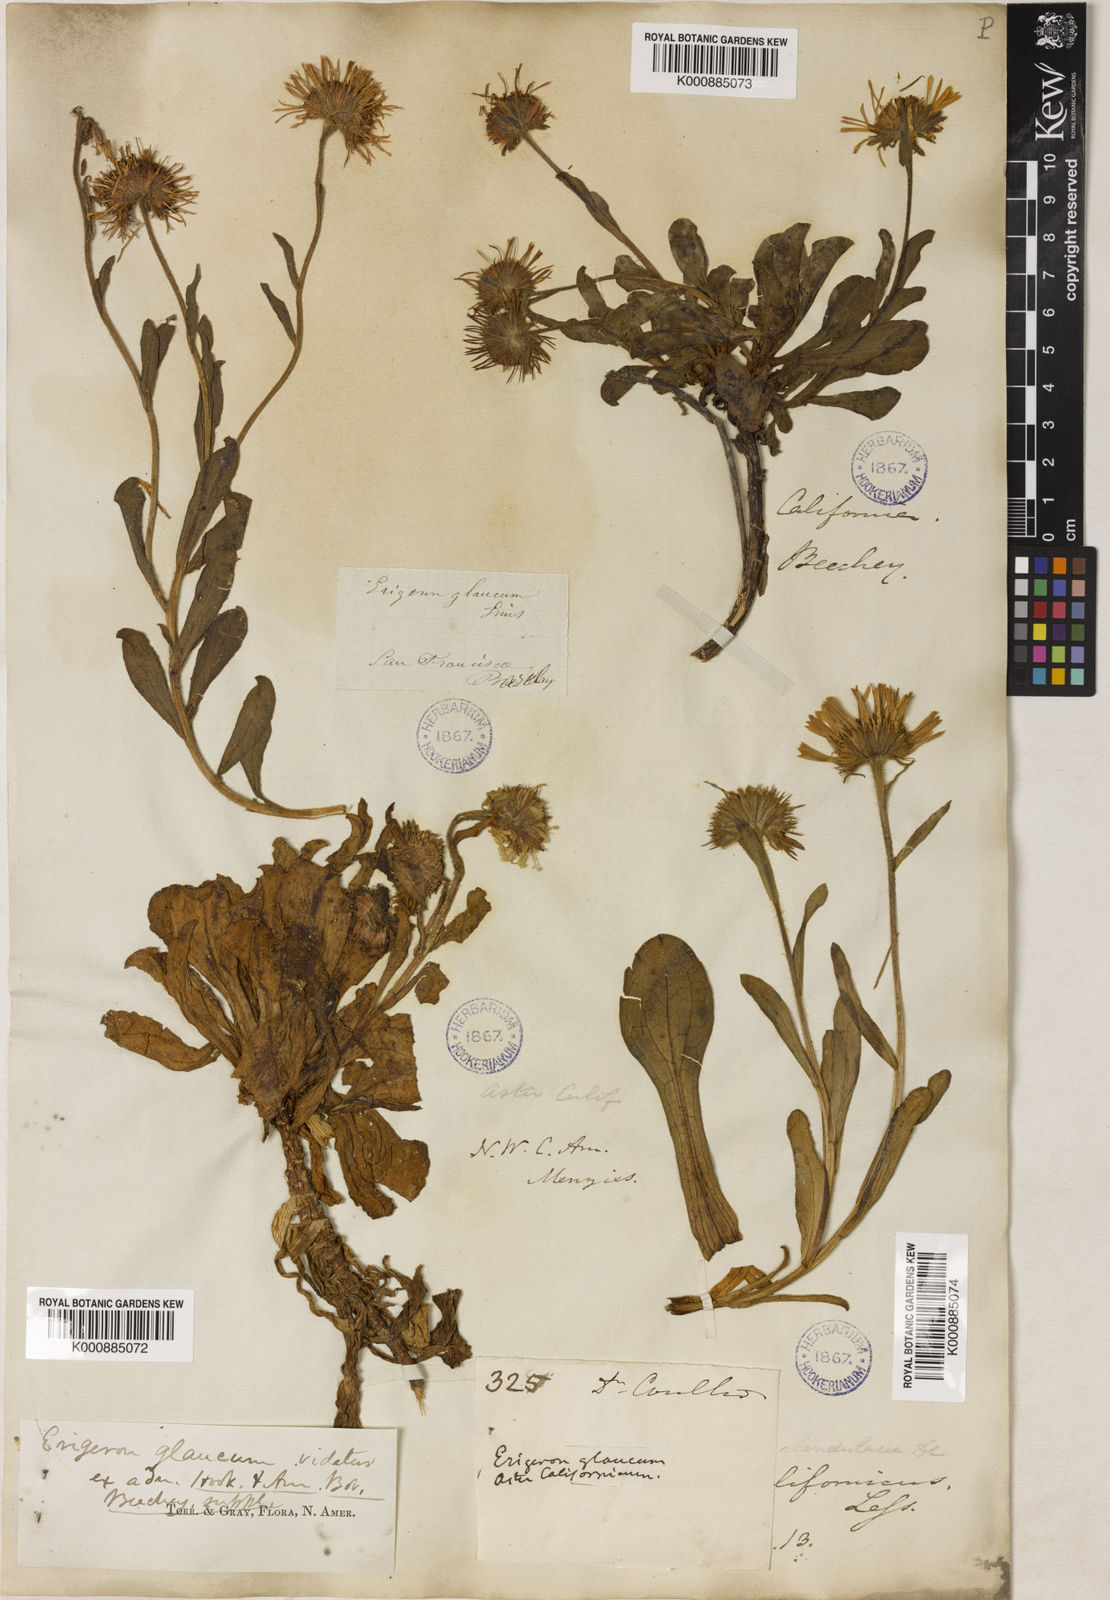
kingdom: Plantae
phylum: Tracheophyta
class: Magnoliopsida
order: Asterales
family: Asteraceae
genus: Erigeron
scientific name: Erigeron glaucus
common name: Seaside daisy
